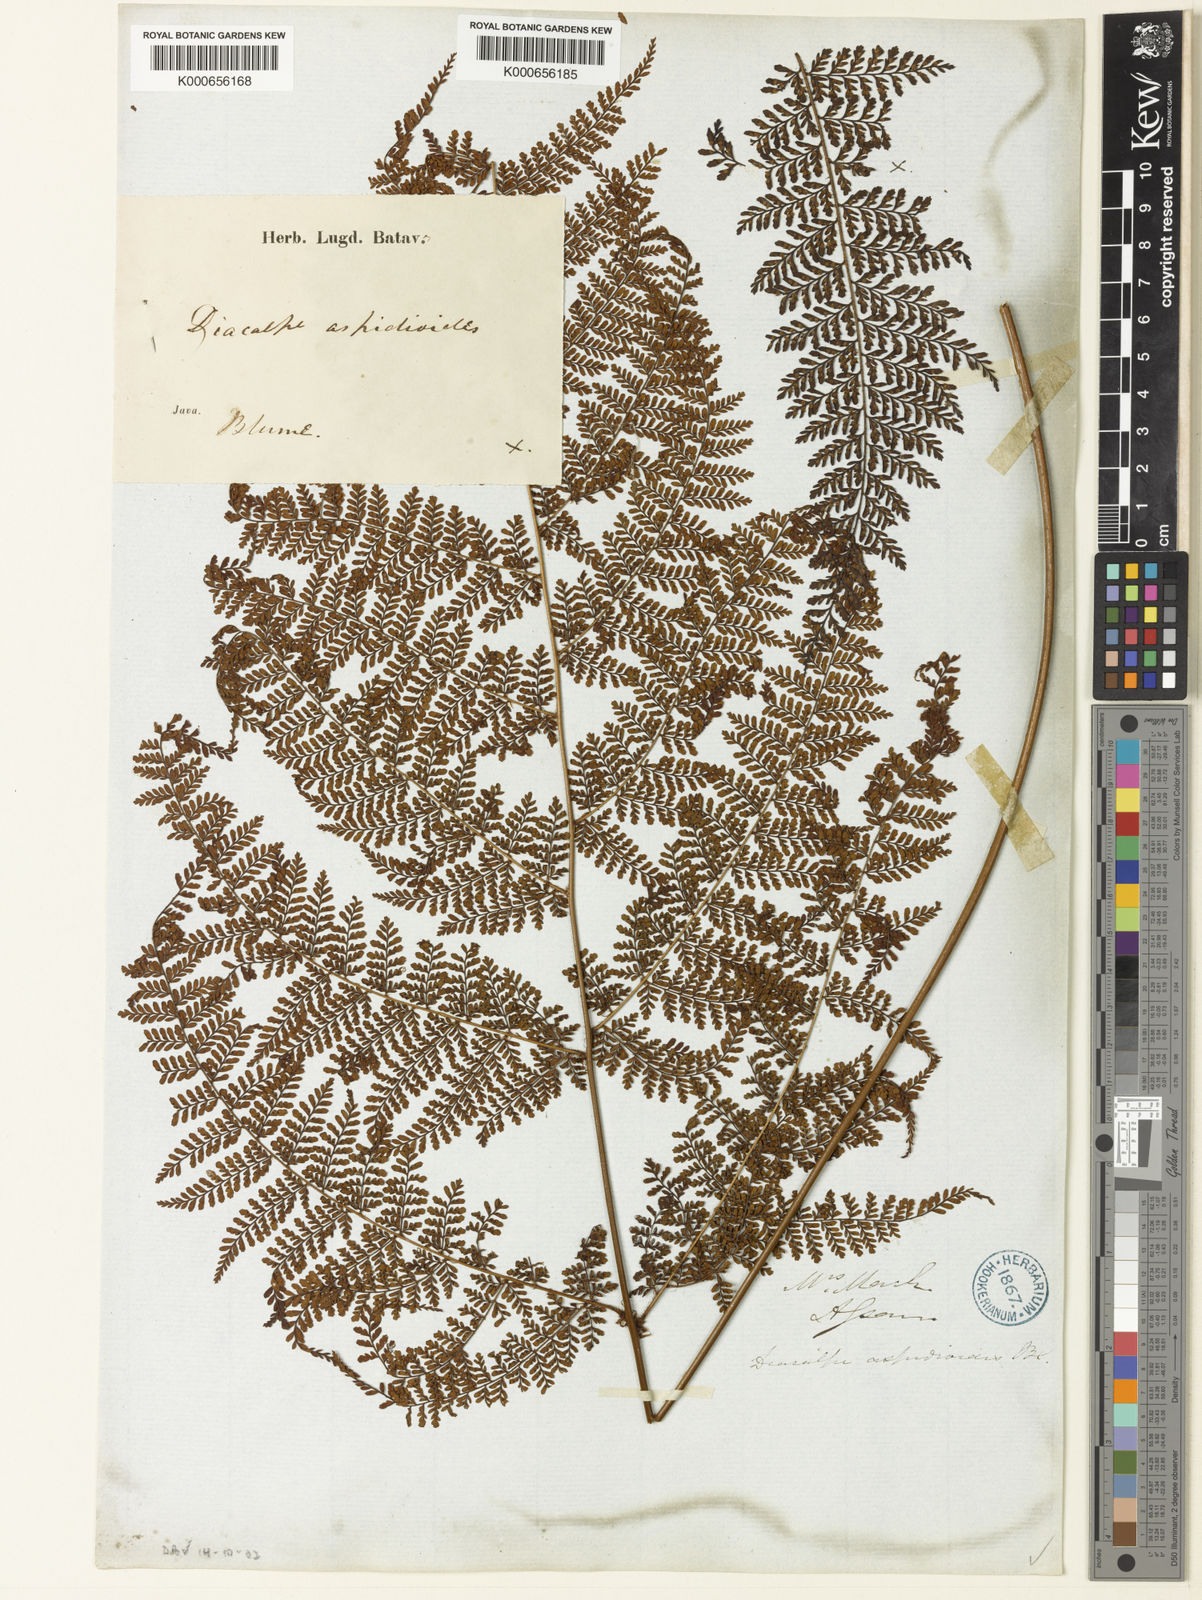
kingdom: Plantae
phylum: Tracheophyta
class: Polypodiopsida
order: Polypodiales
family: Dryopteridaceae
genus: Dryopteris
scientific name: Dryopteris pseudocaenopteris
